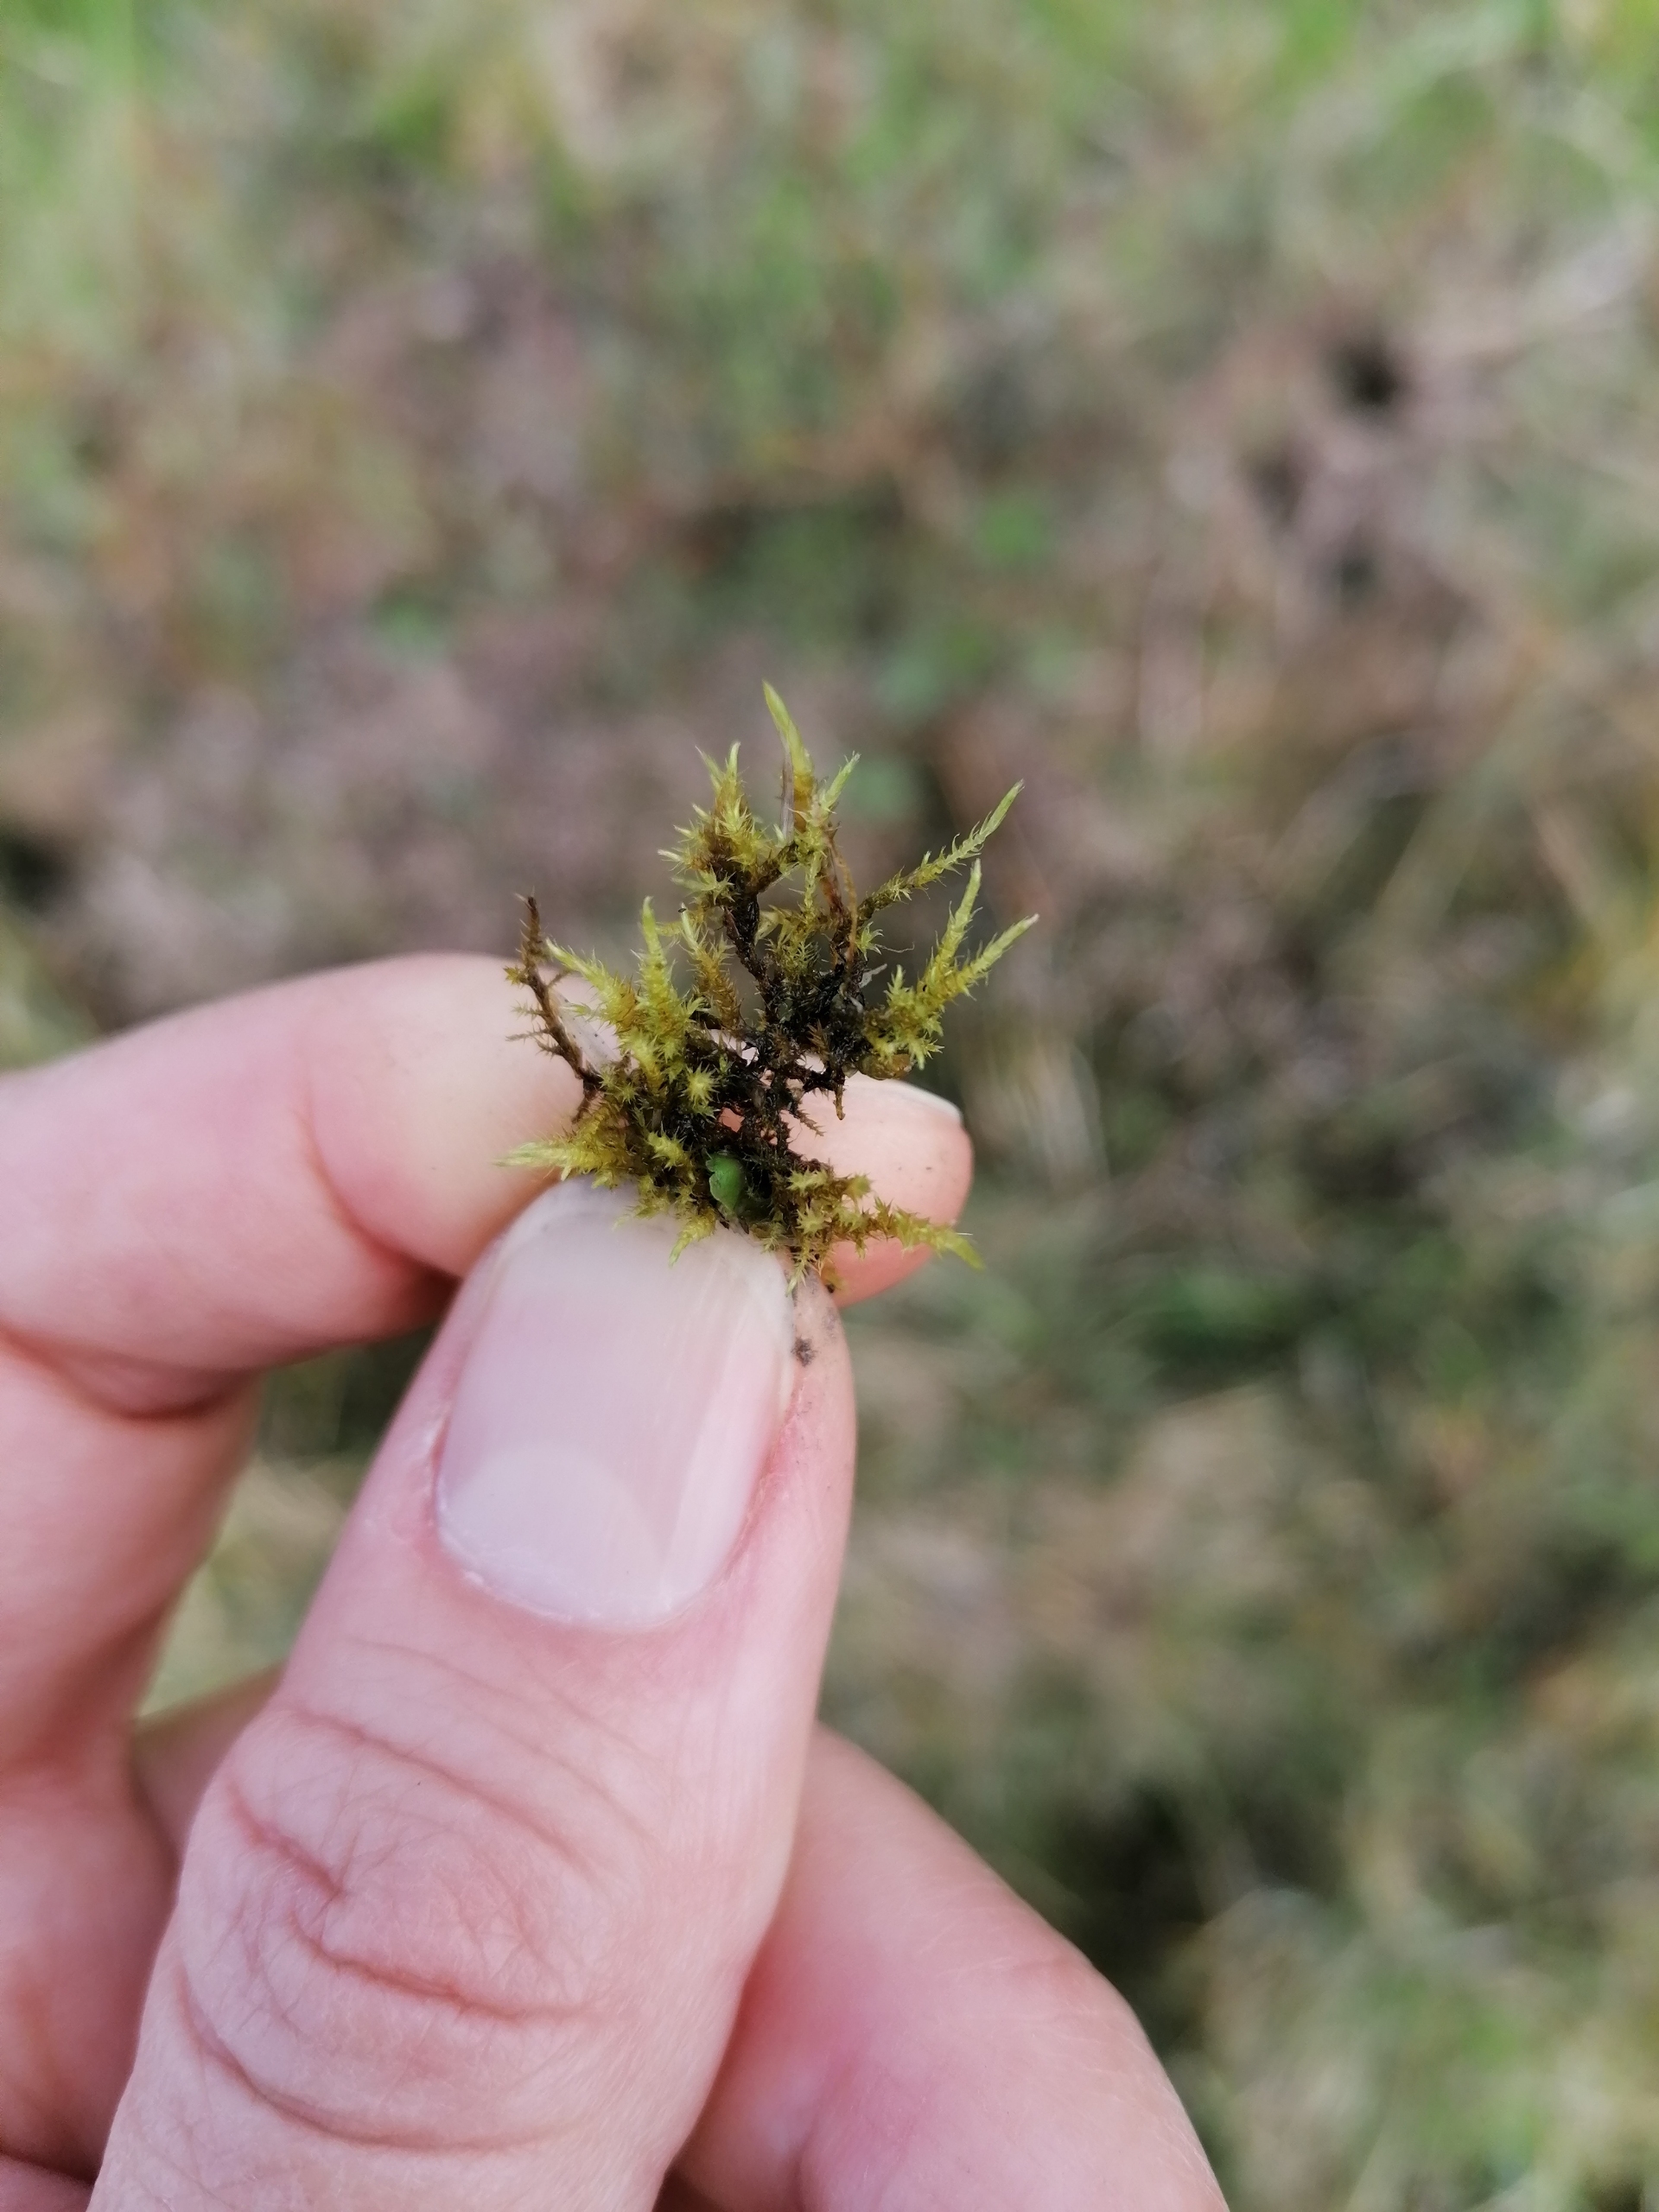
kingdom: Plantae
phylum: Bryophyta
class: Bryopsida
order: Hypnales
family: Amblystegiaceae
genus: Cratoneuron
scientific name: Cratoneuron filicinum
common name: Grøn eremitmos
